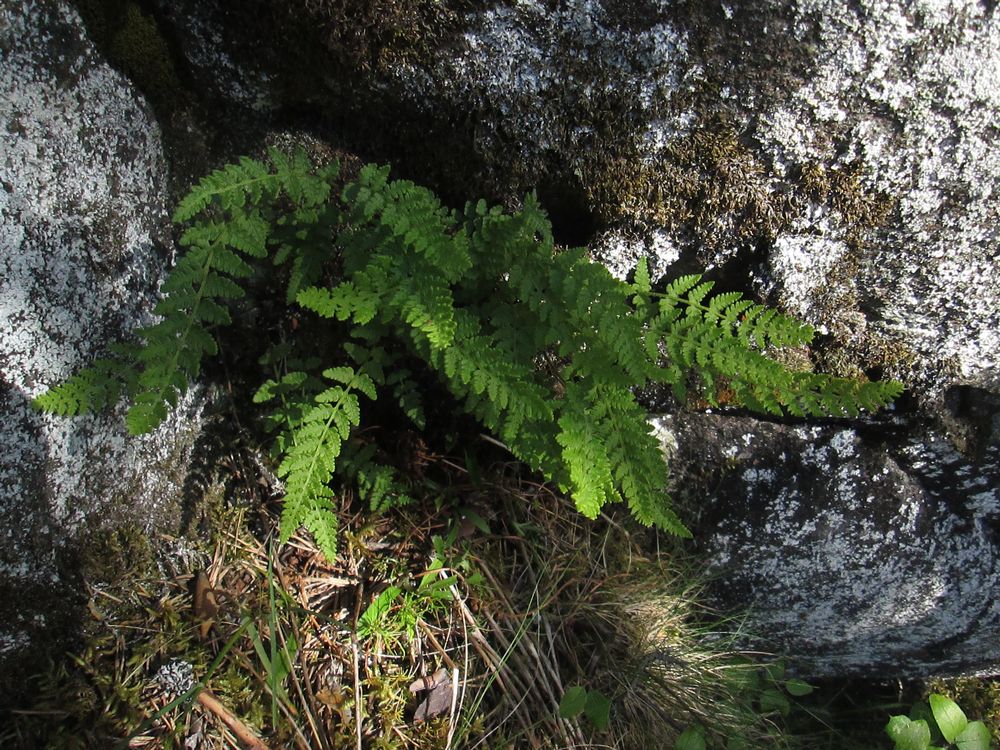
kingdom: Plantae
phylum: Tracheophyta
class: Polypodiopsida
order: Polypodiales
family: Woodsiaceae
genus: Woodsia
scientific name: Woodsia alpina
